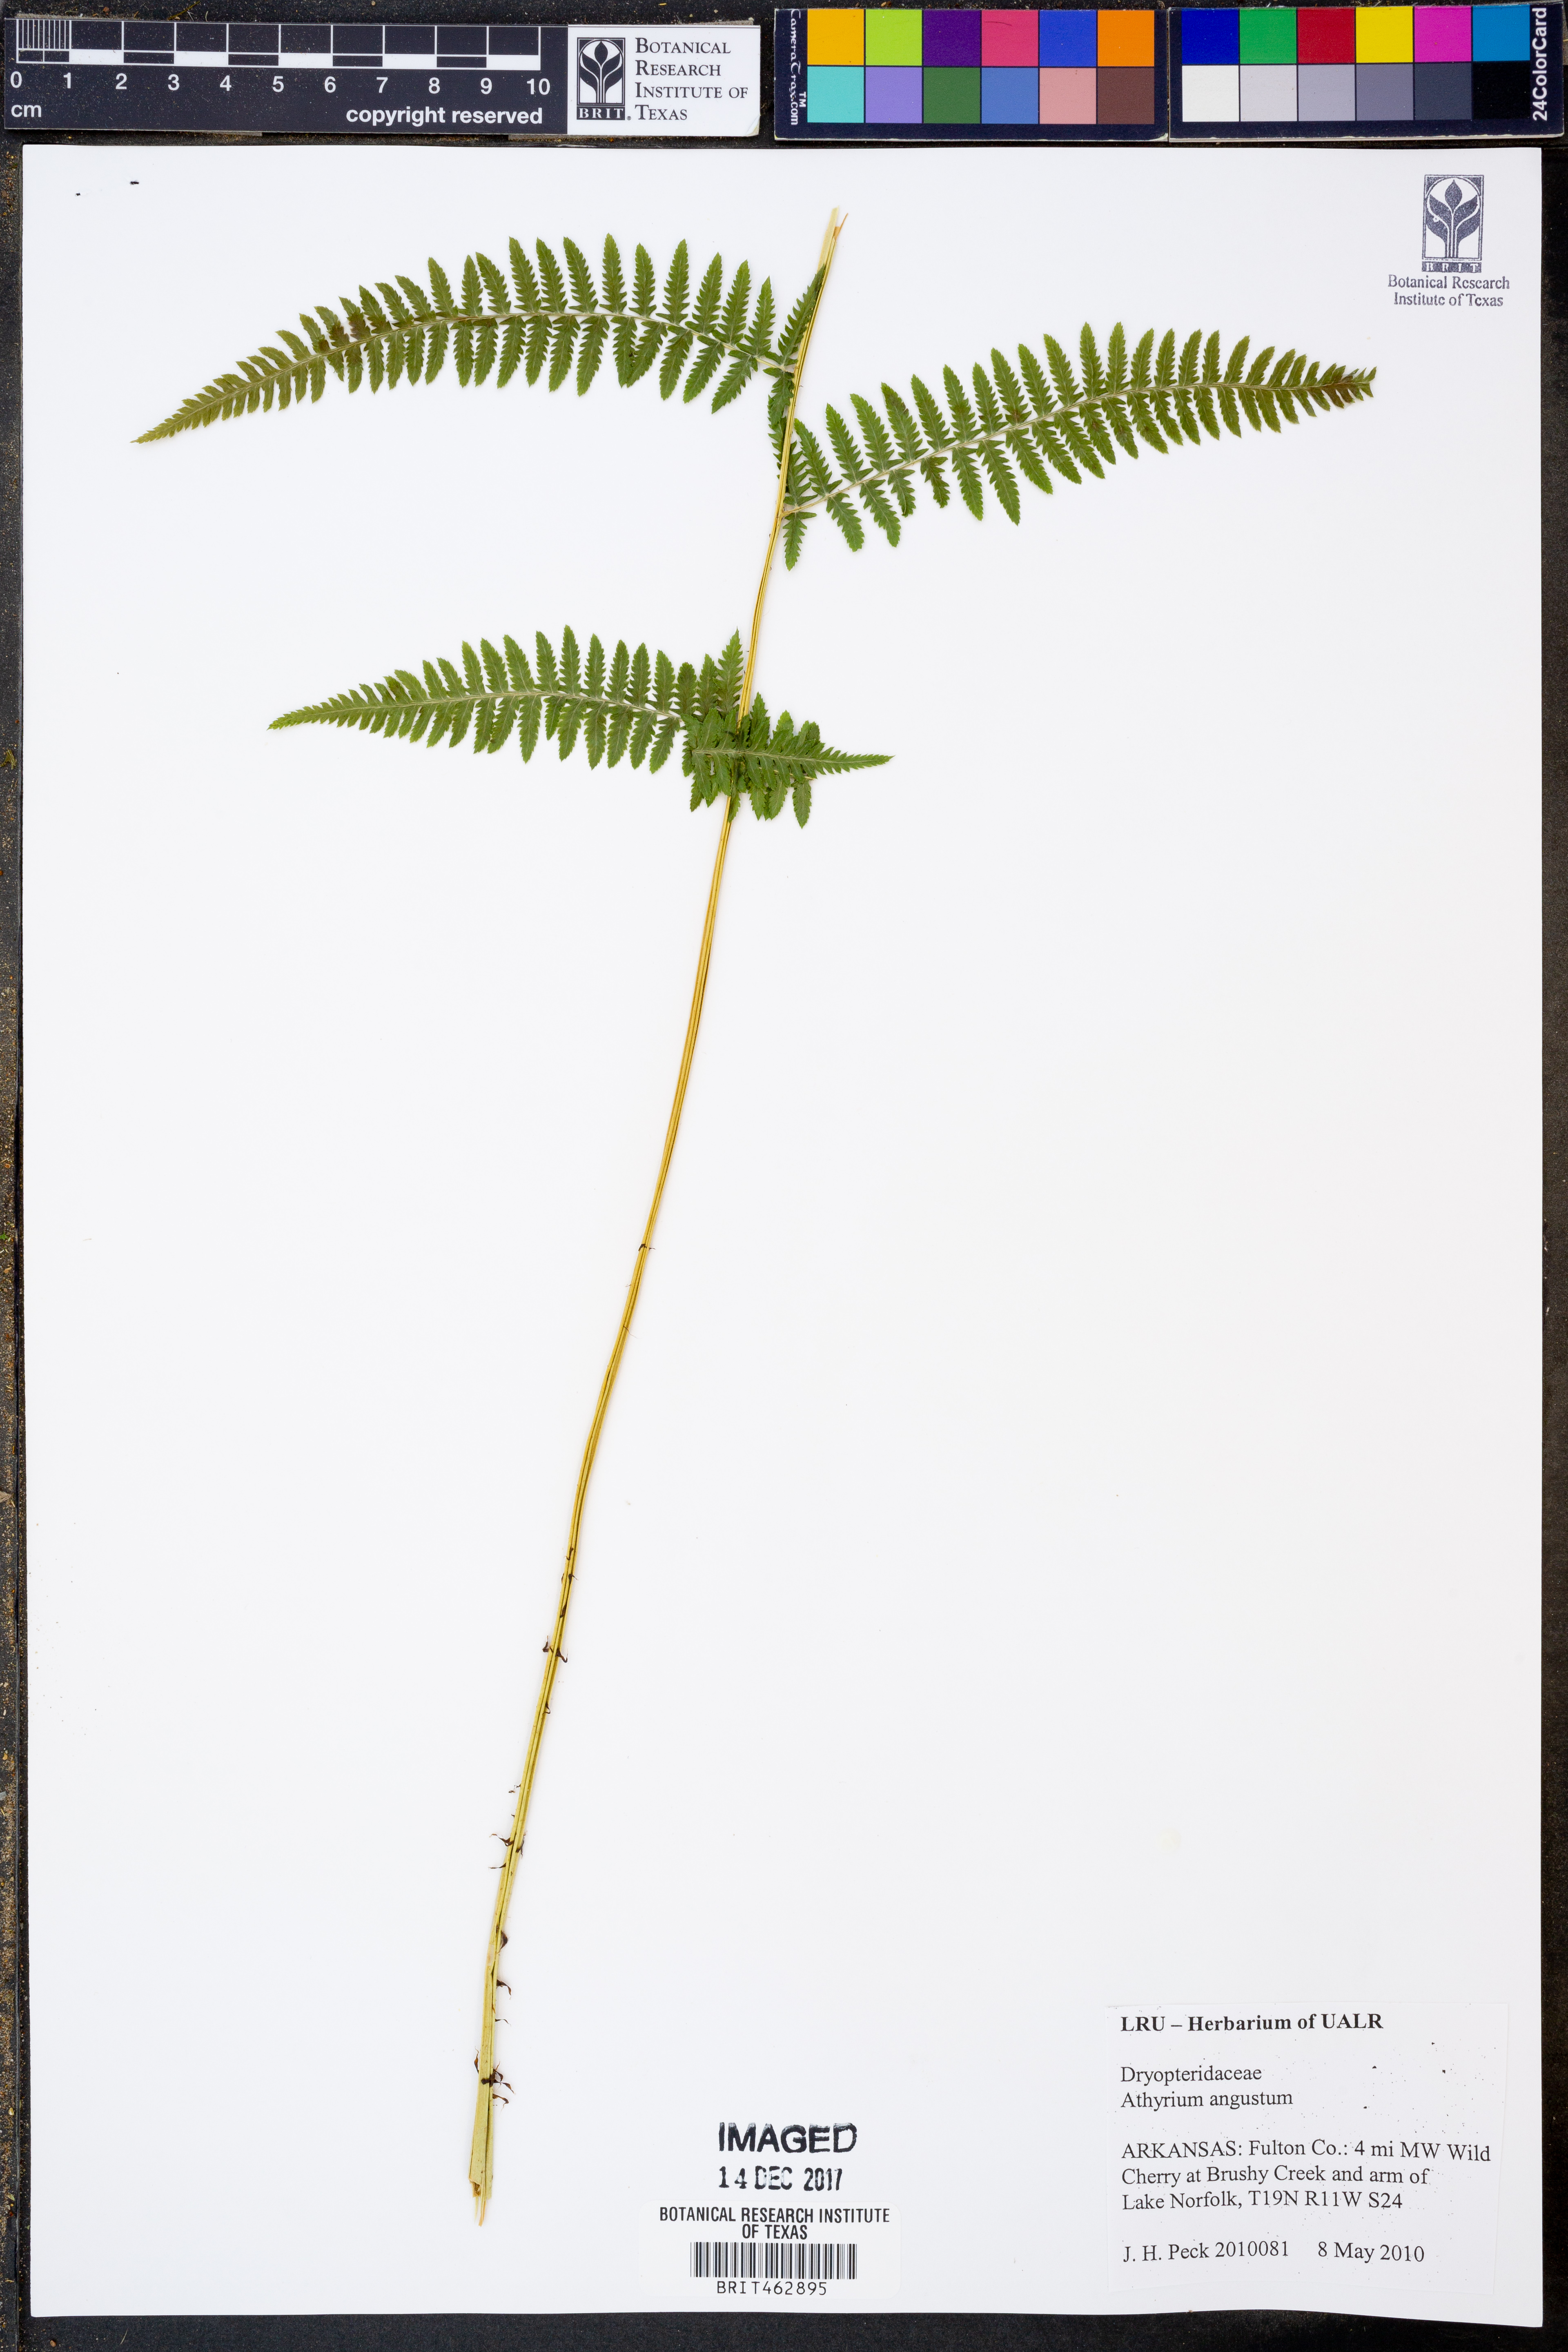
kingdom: Plantae
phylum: Tracheophyta
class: Polypodiopsida
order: Polypodiales
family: Dryopteridaceae
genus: Dryopteris
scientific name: Dryopteris goeldiana
